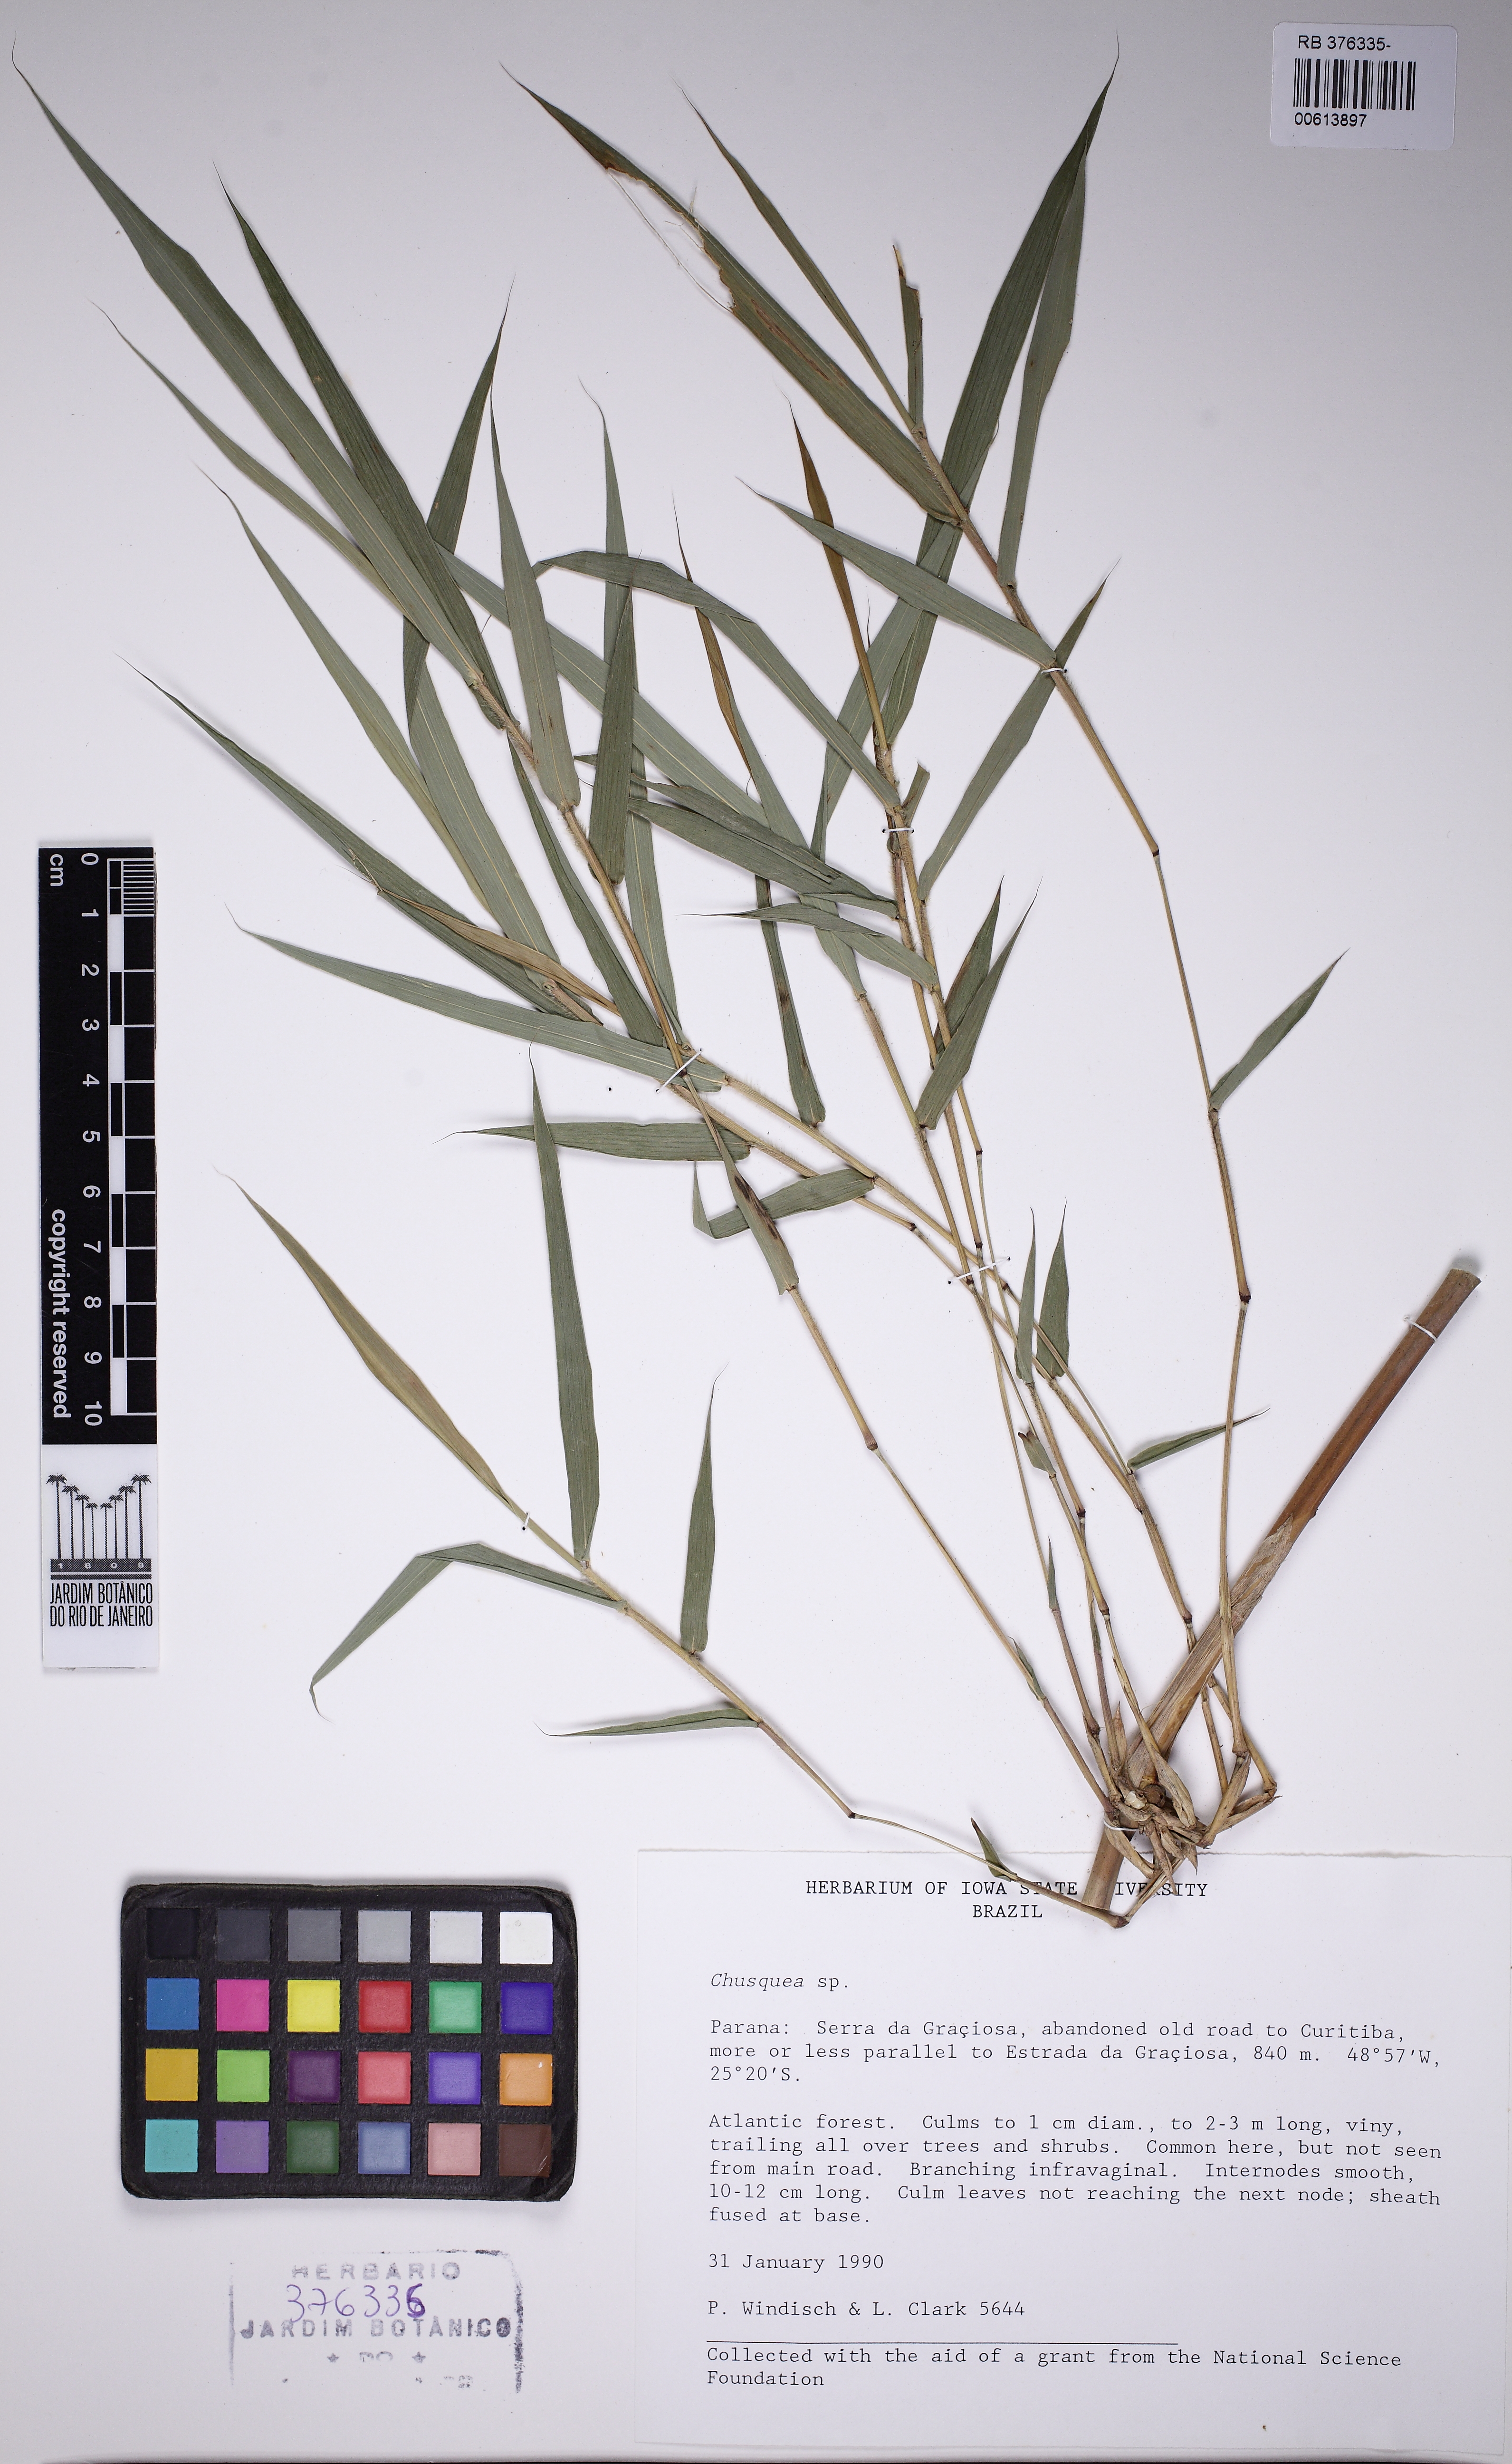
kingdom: Plantae
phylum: Tracheophyta
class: Liliopsida
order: Poales
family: Poaceae
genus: Chusquea
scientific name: Chusquea attenuata
